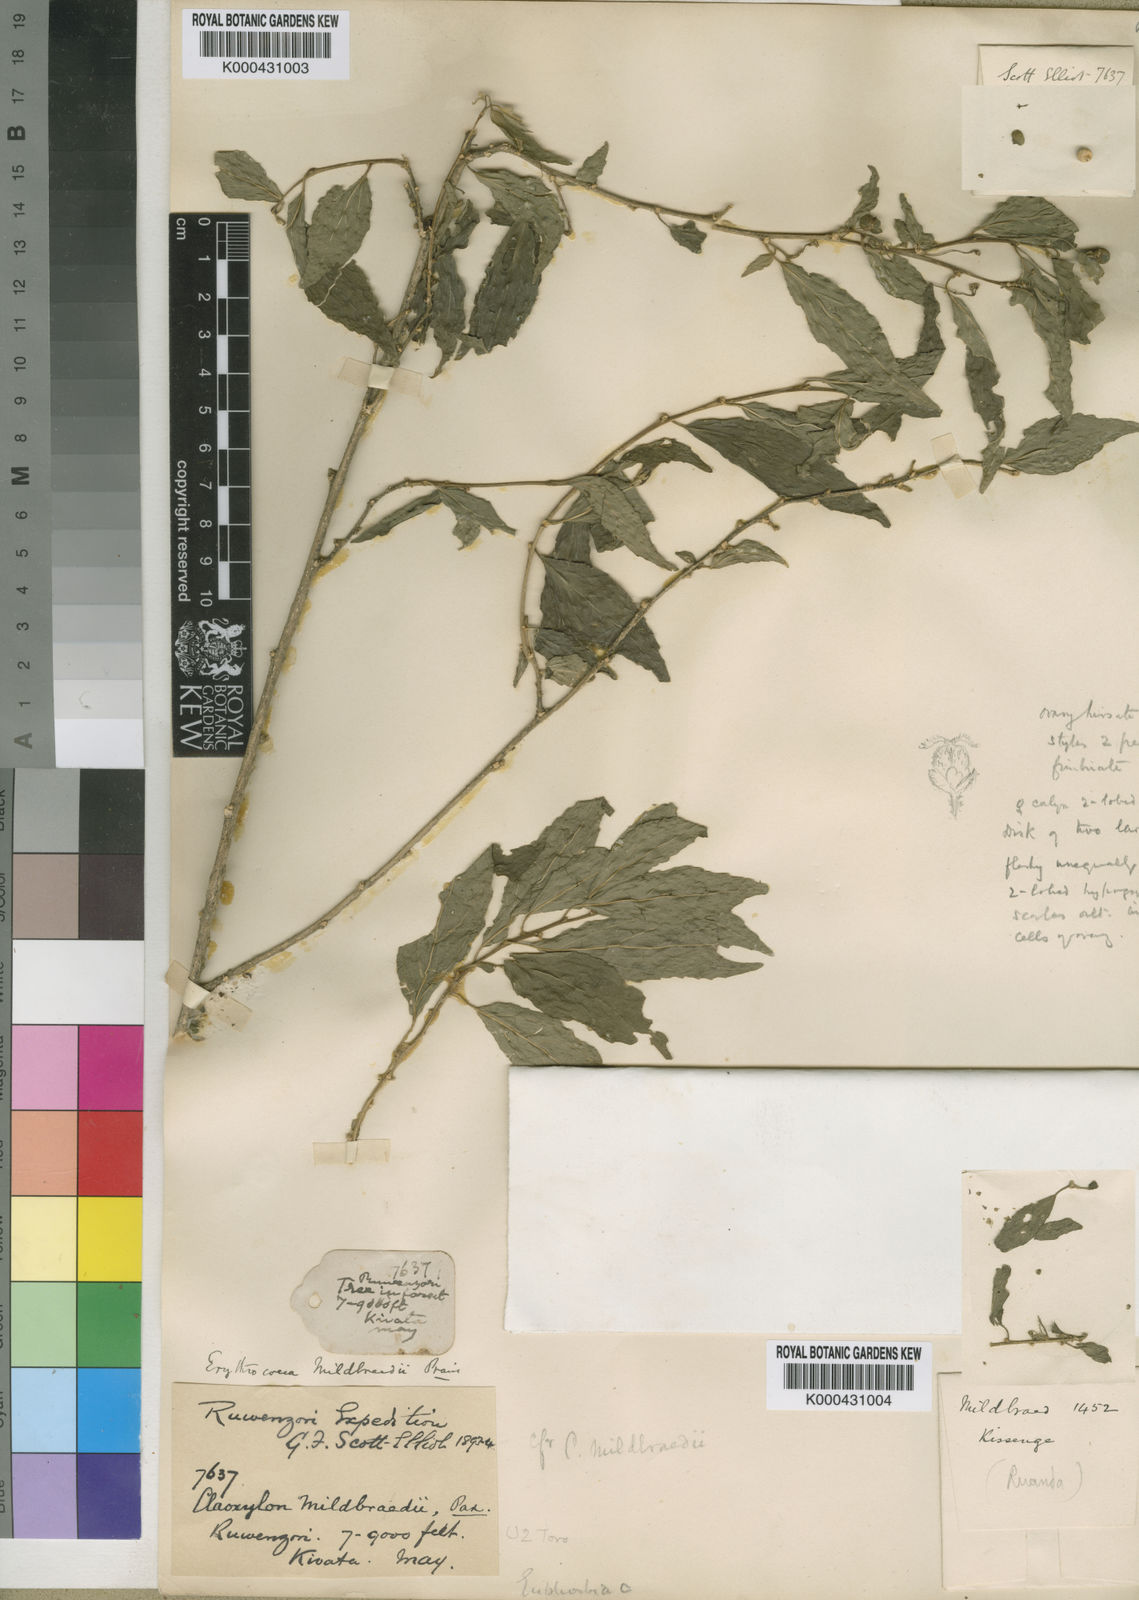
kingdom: Plantae
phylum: Tracheophyta
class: Magnoliopsida
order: Malpighiales
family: Euphorbiaceae
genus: Erythrococca
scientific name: Erythrococca trichogyne
